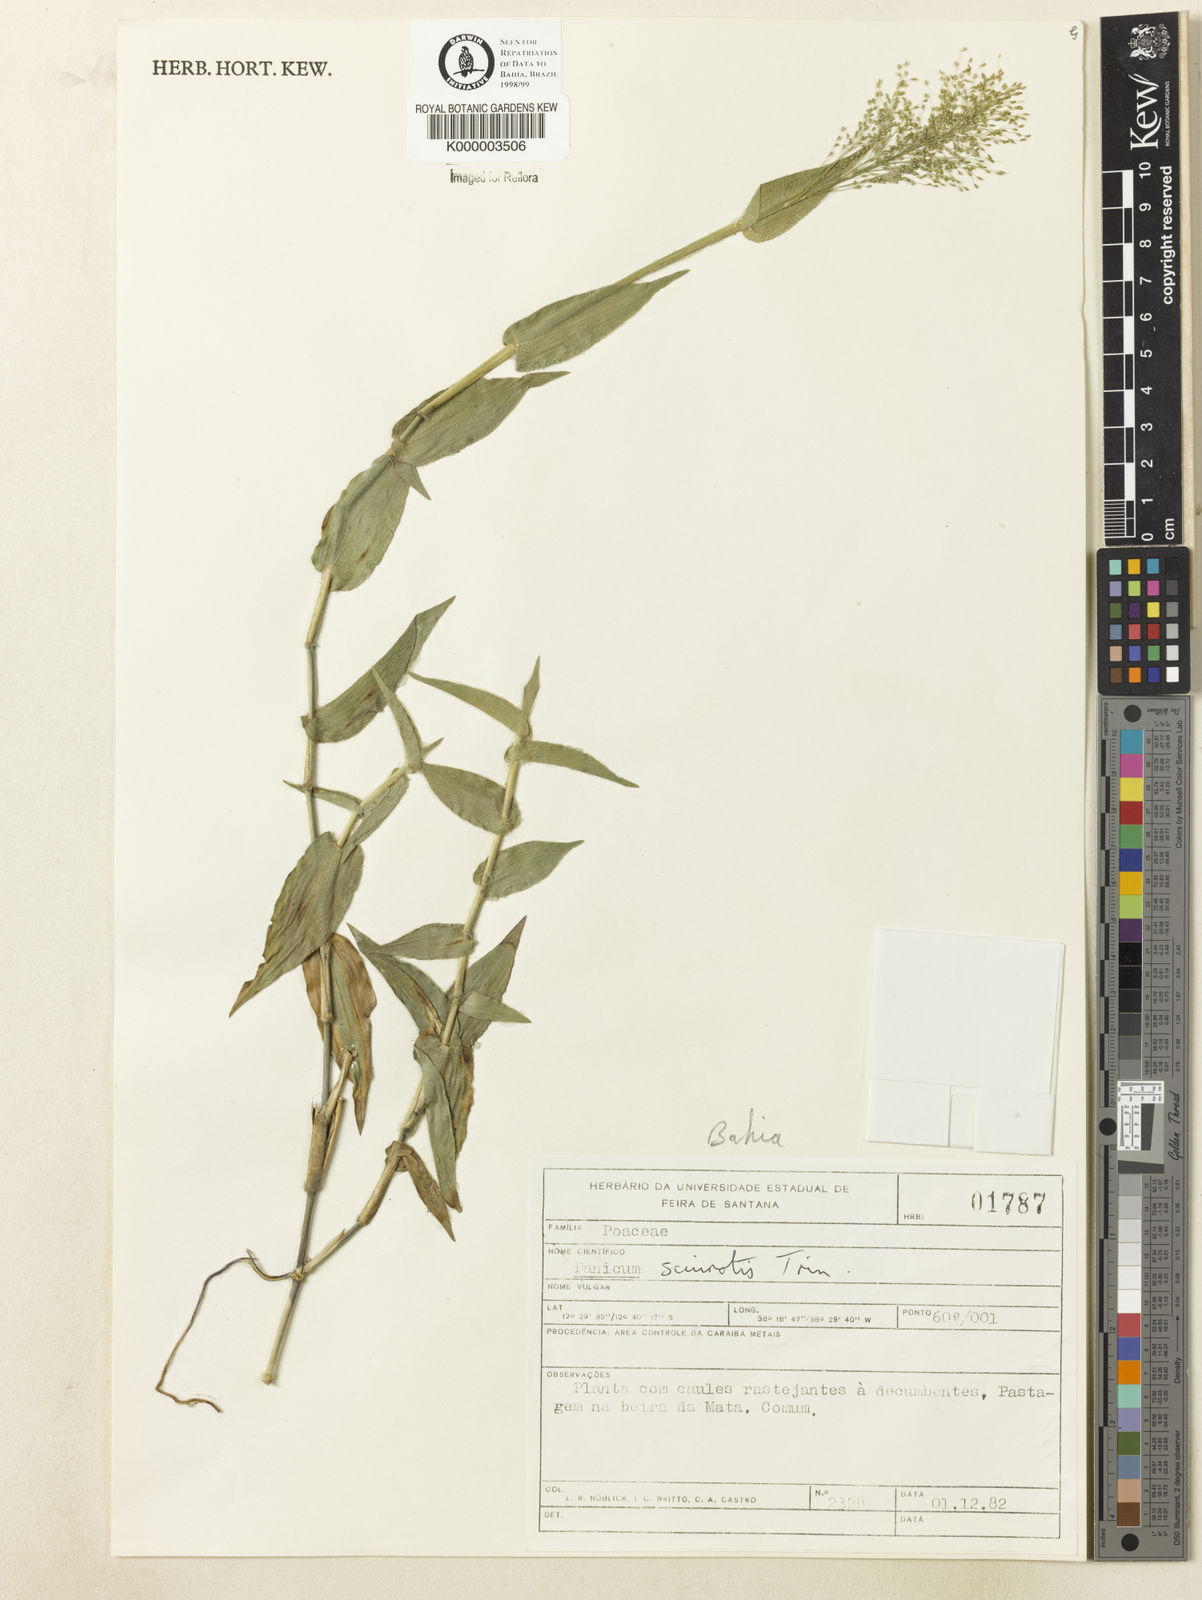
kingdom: Plantae
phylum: Tracheophyta
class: Liliopsida
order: Poales
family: Poaceae
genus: Dichanthelium
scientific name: Dichanthelium sciurotoides
